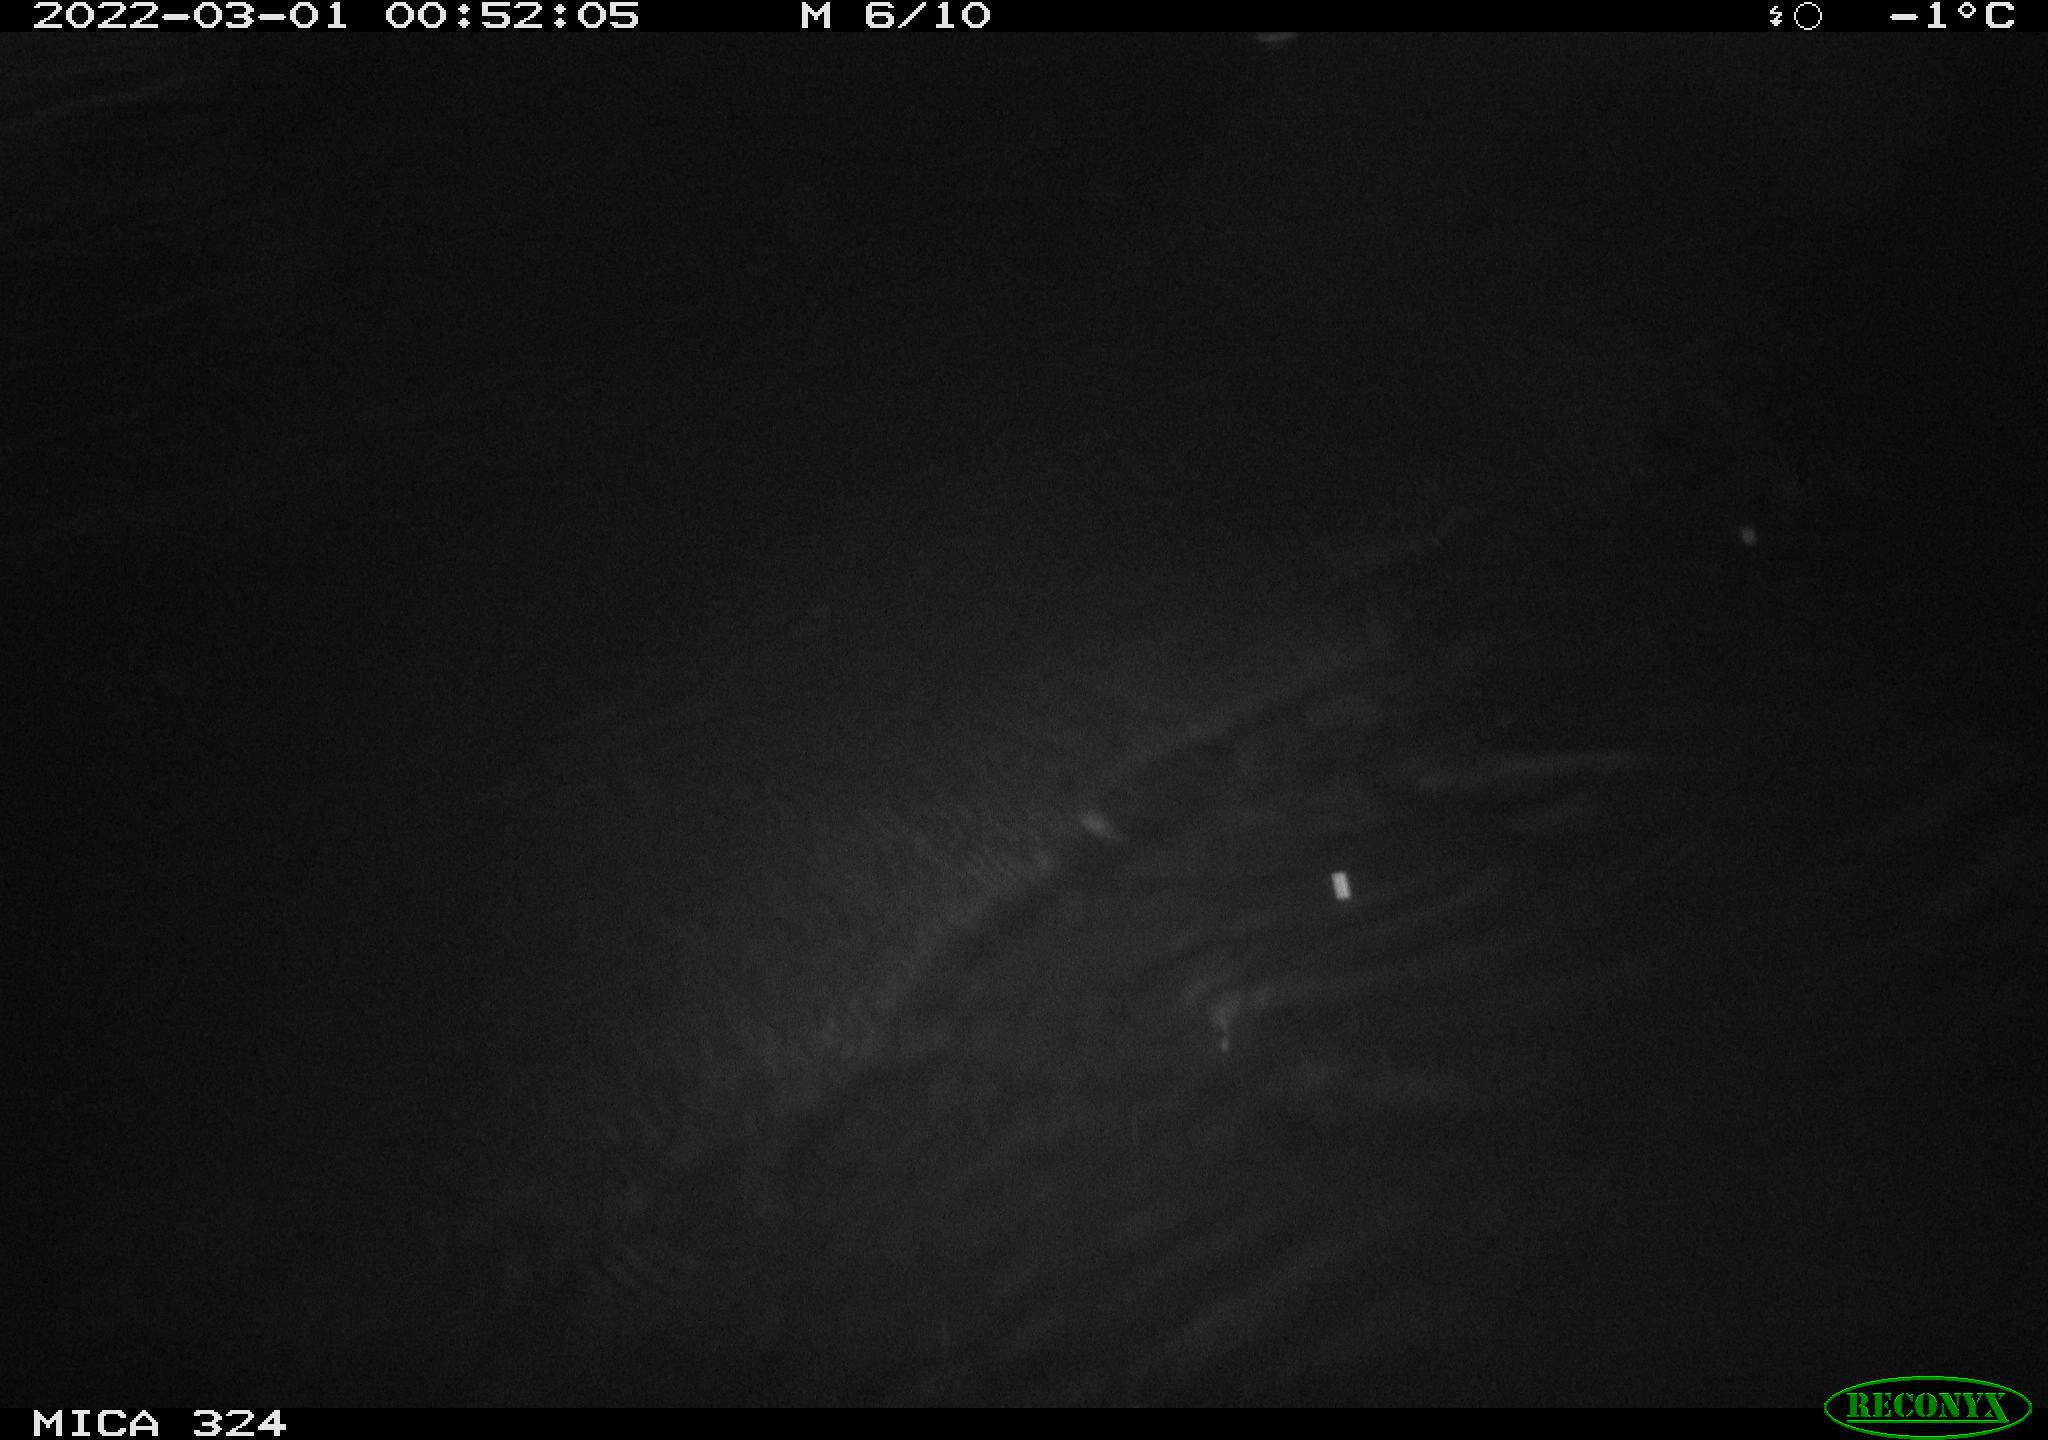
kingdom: Animalia
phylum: Chordata
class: Mammalia
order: Rodentia
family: Cricetidae
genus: Ondatra
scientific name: Ondatra zibethicus
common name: Muskrat
